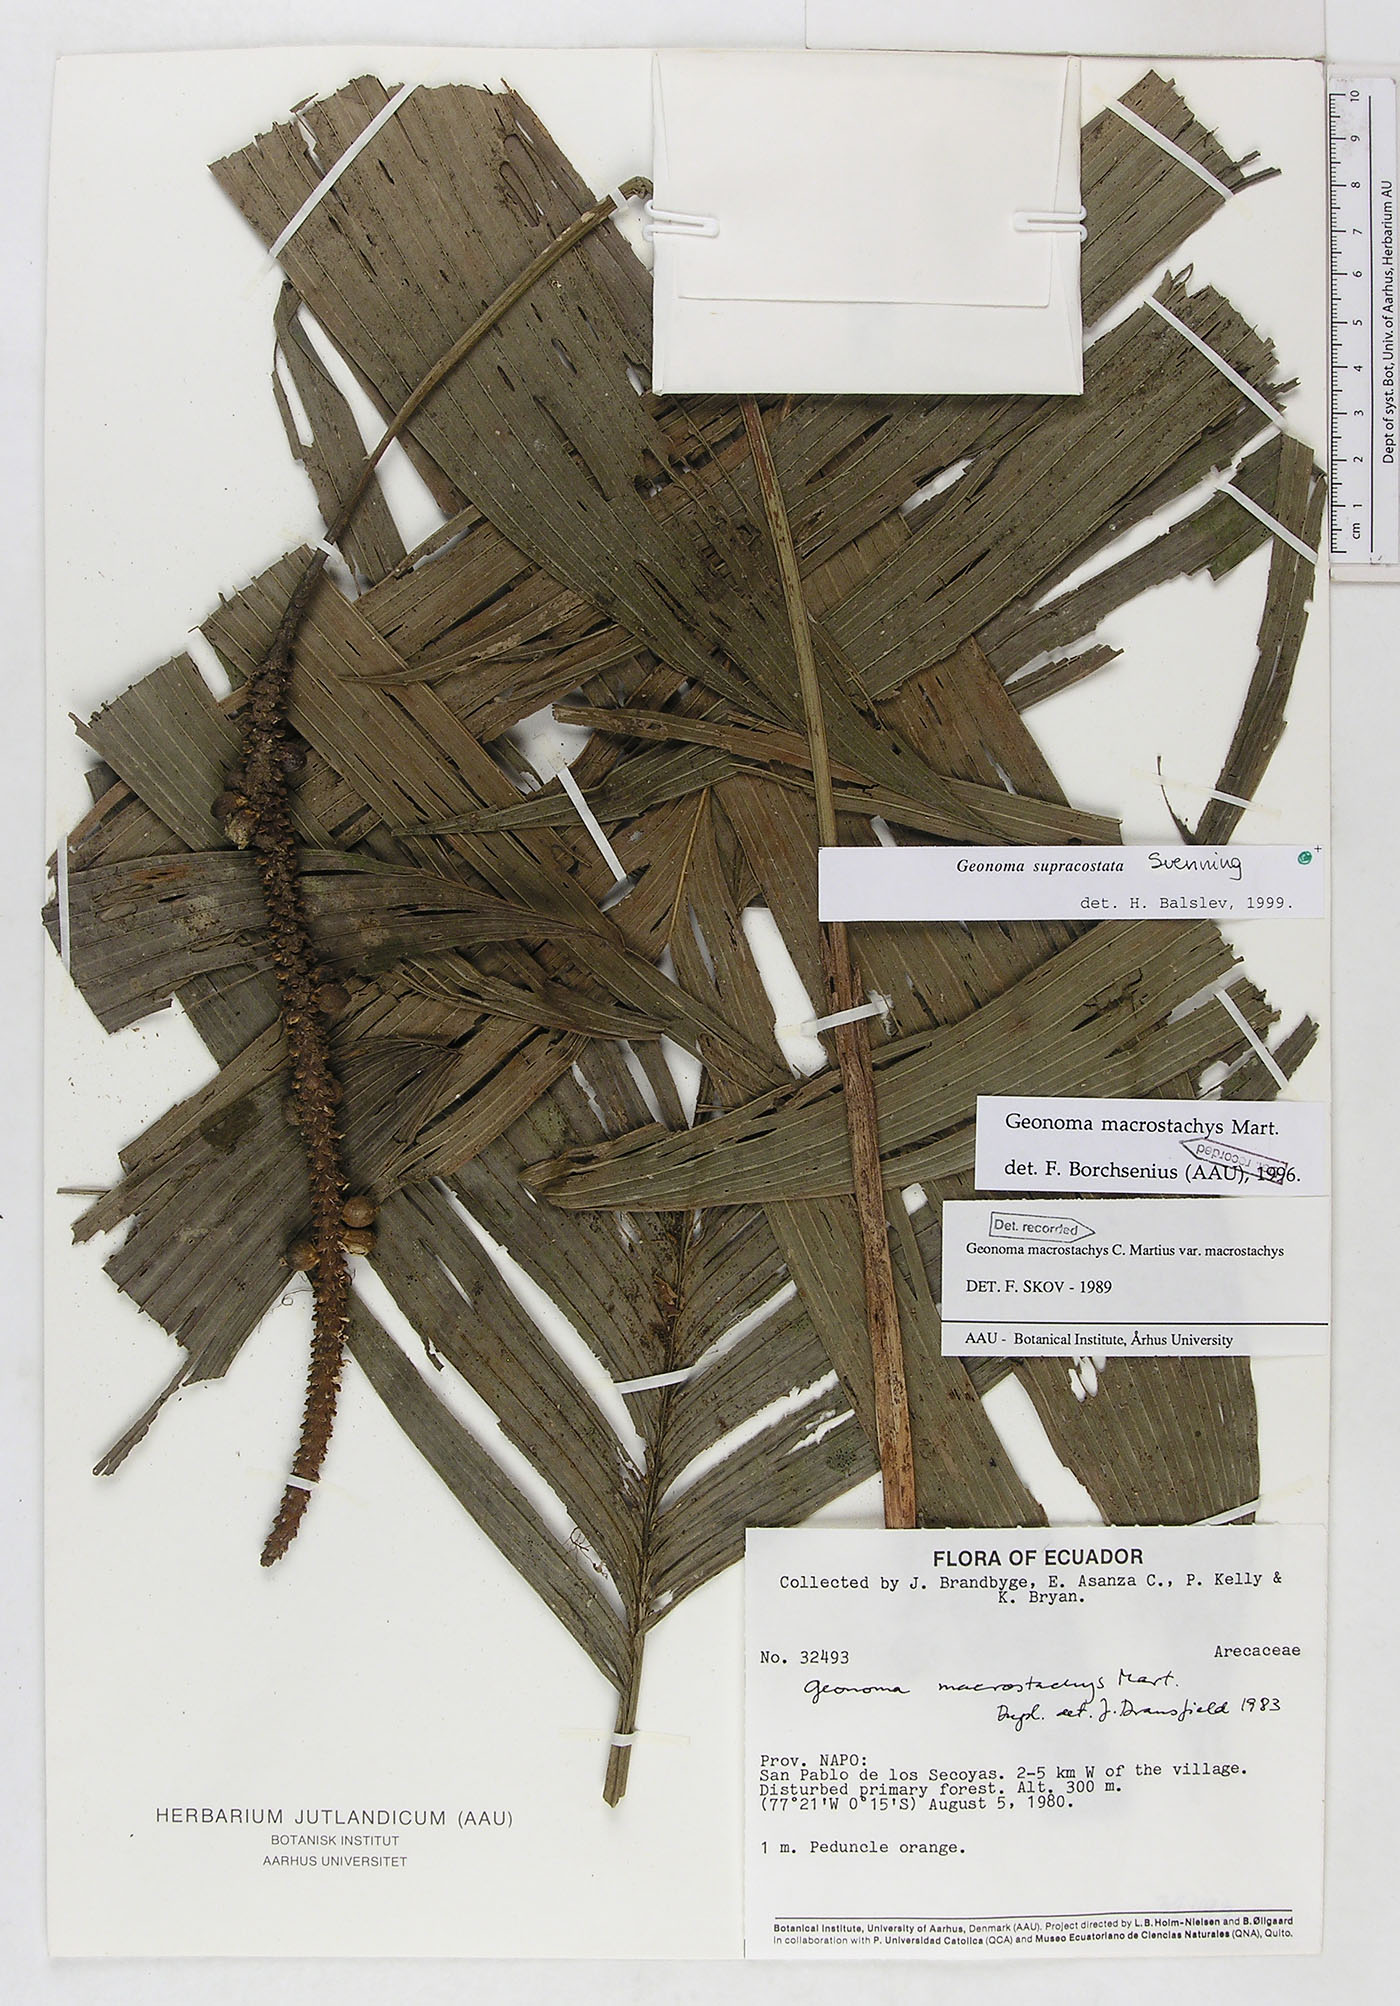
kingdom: Plantae
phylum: Tracheophyta
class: Liliopsida
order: Arecales
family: Arecaceae
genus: Geonoma
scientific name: Geonoma macrostachys
